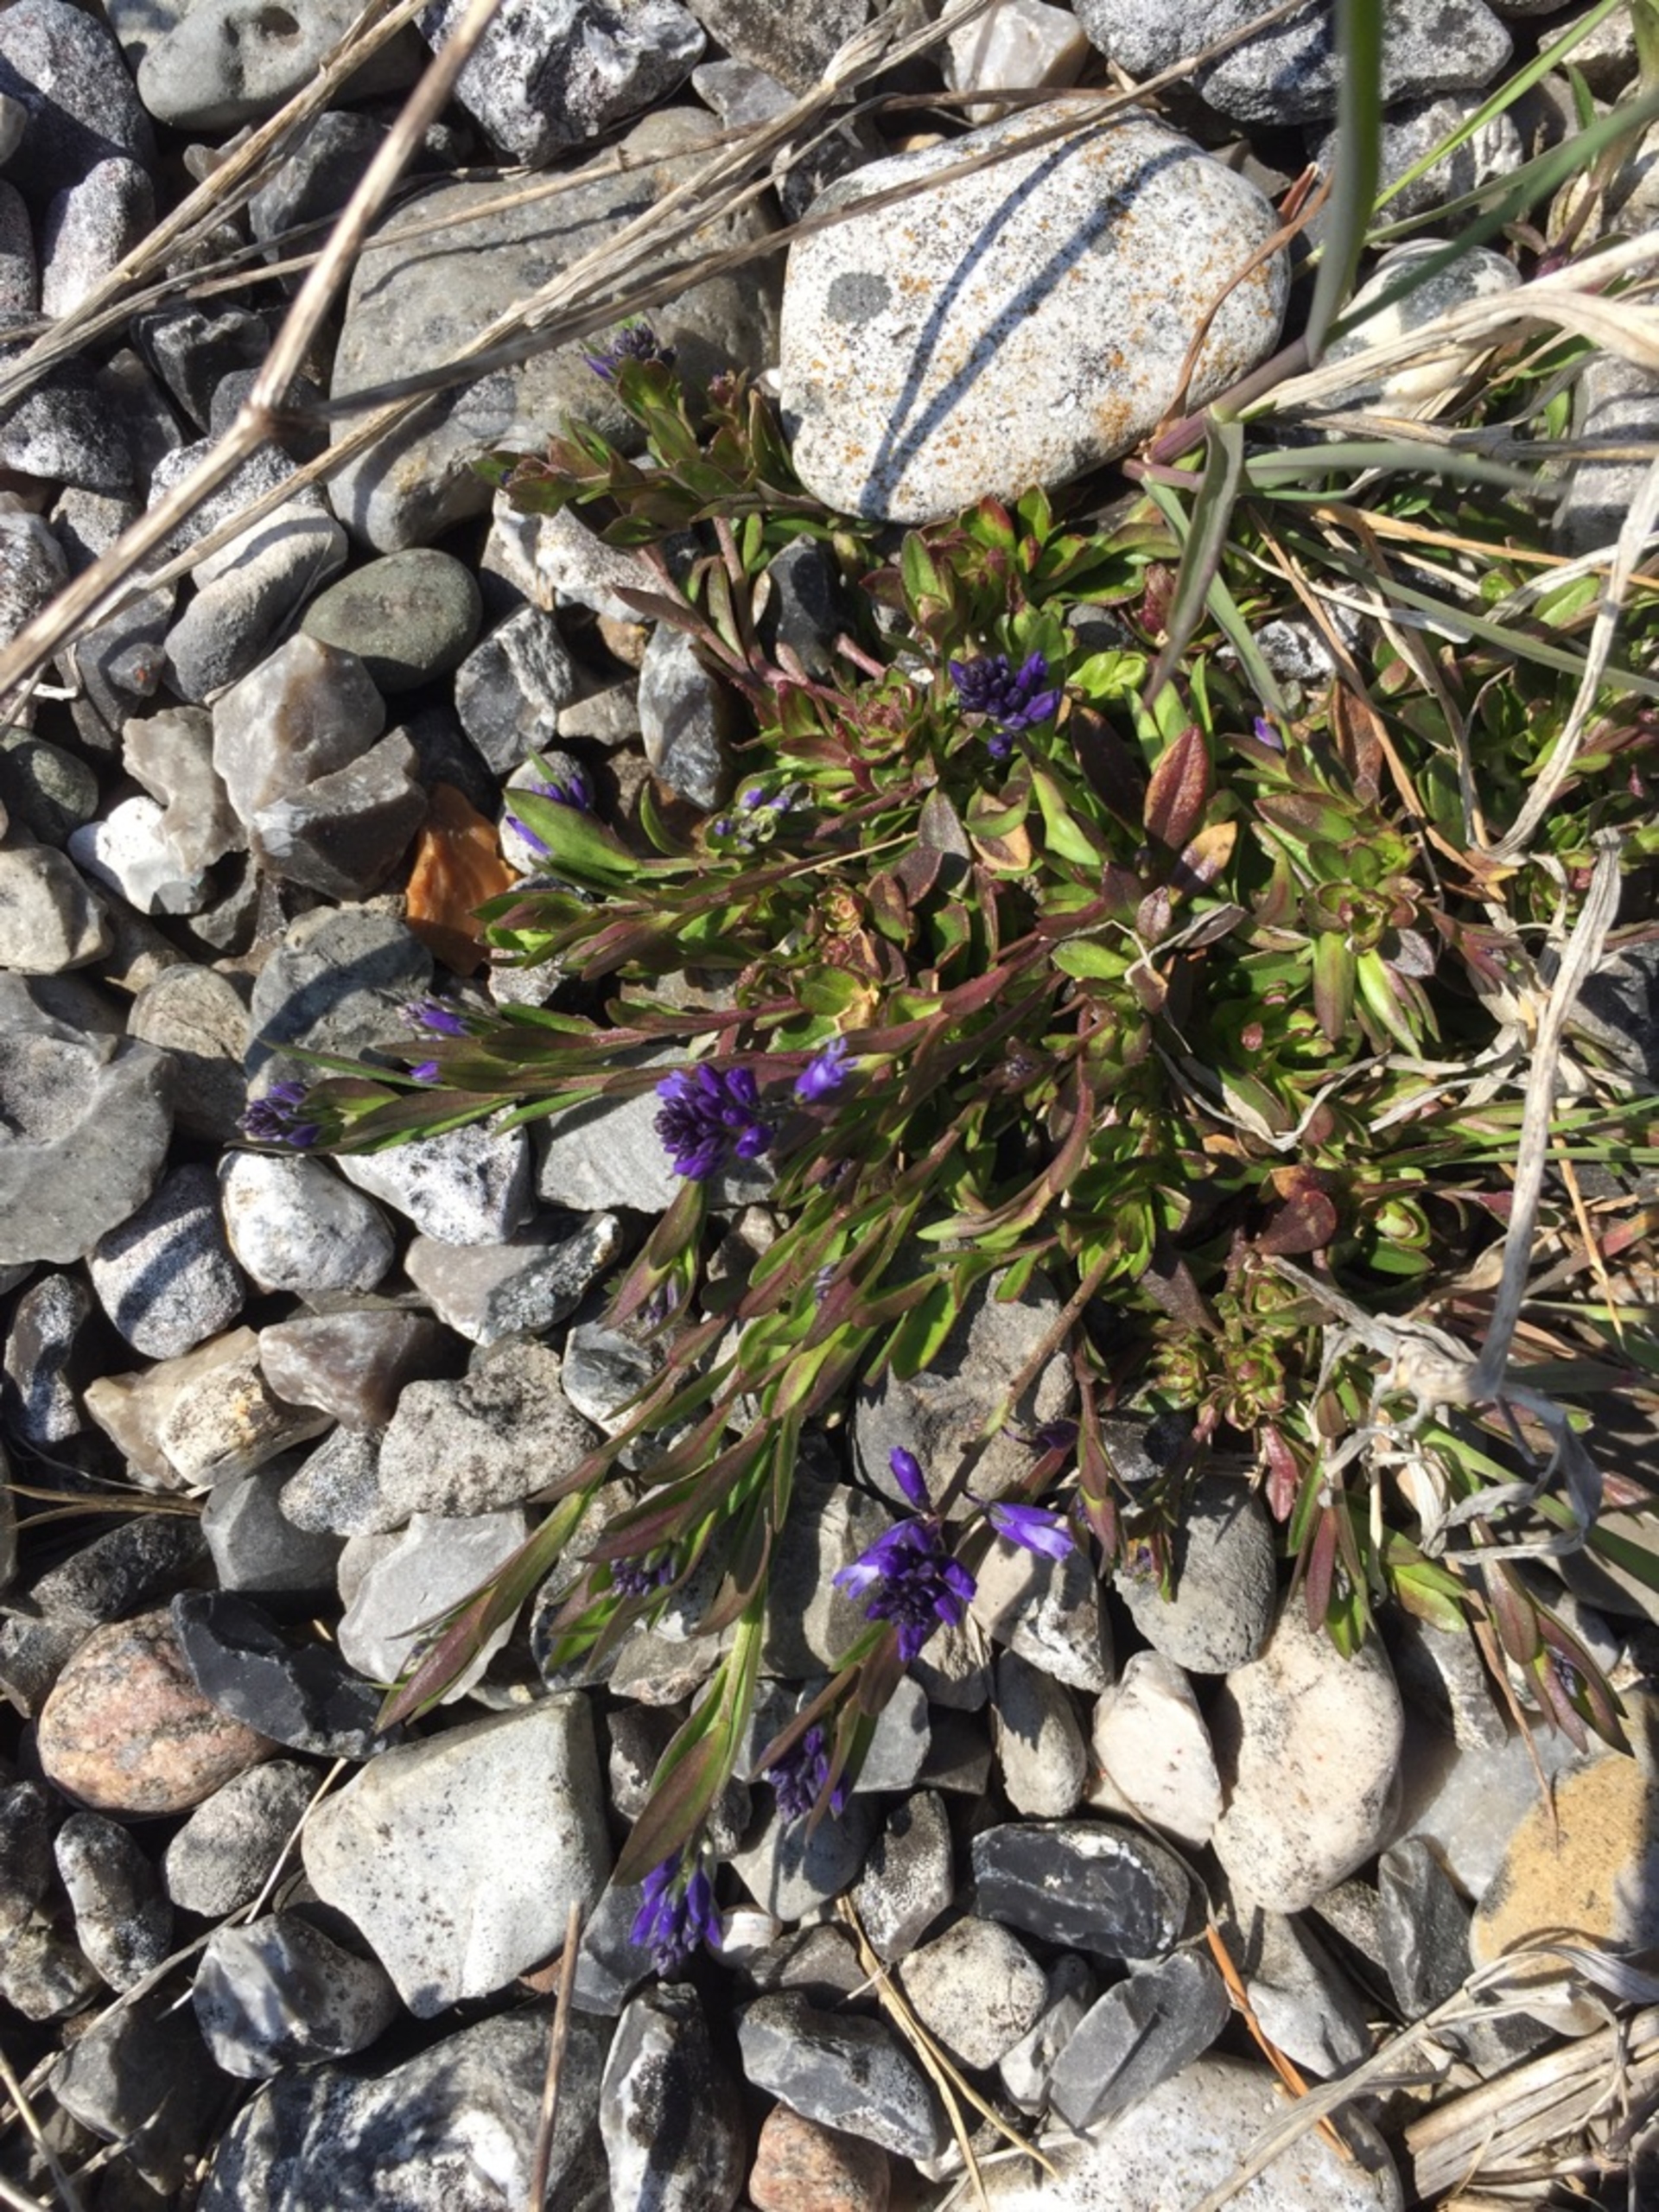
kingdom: Plantae
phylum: Tracheophyta
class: Magnoliopsida
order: Fabales
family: Polygalaceae
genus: Polygala
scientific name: Polygala vulgaris
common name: Almindelig mælkeurt
